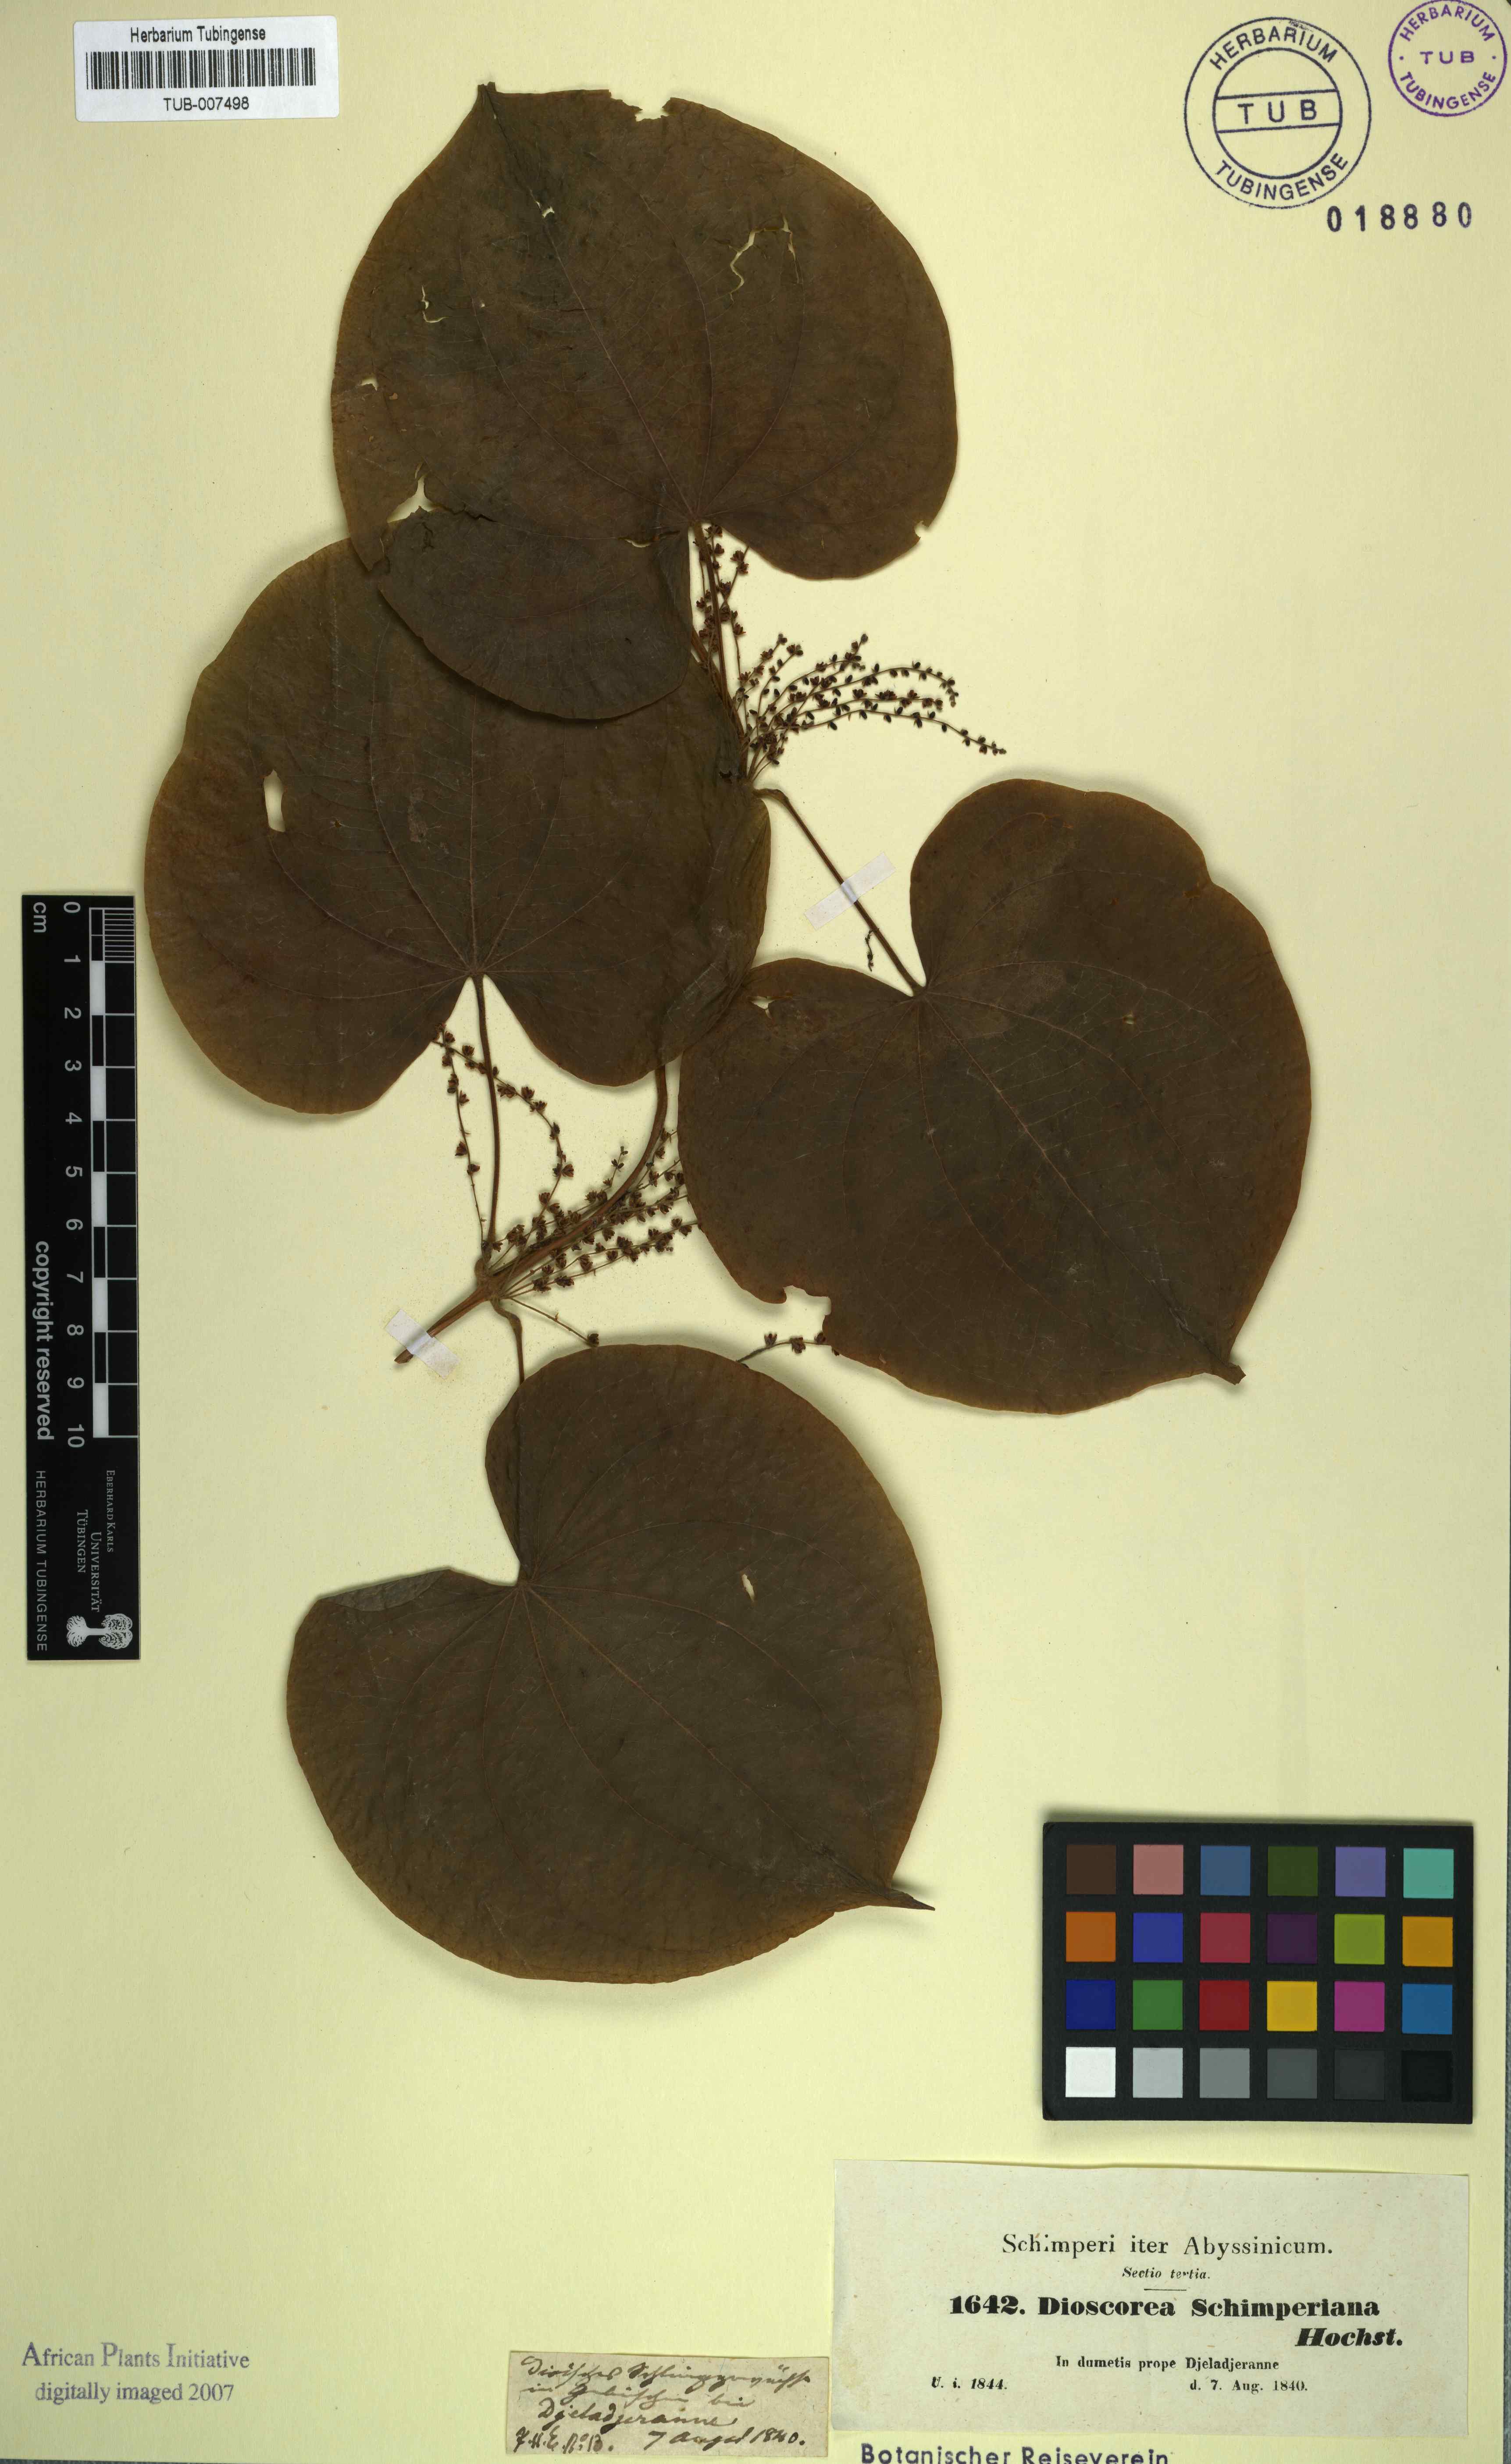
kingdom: Plantae
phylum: Tracheophyta
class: Liliopsida
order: Dioscoreales
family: Dioscoreaceae
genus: Dioscorea
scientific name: Dioscorea schimperiana
